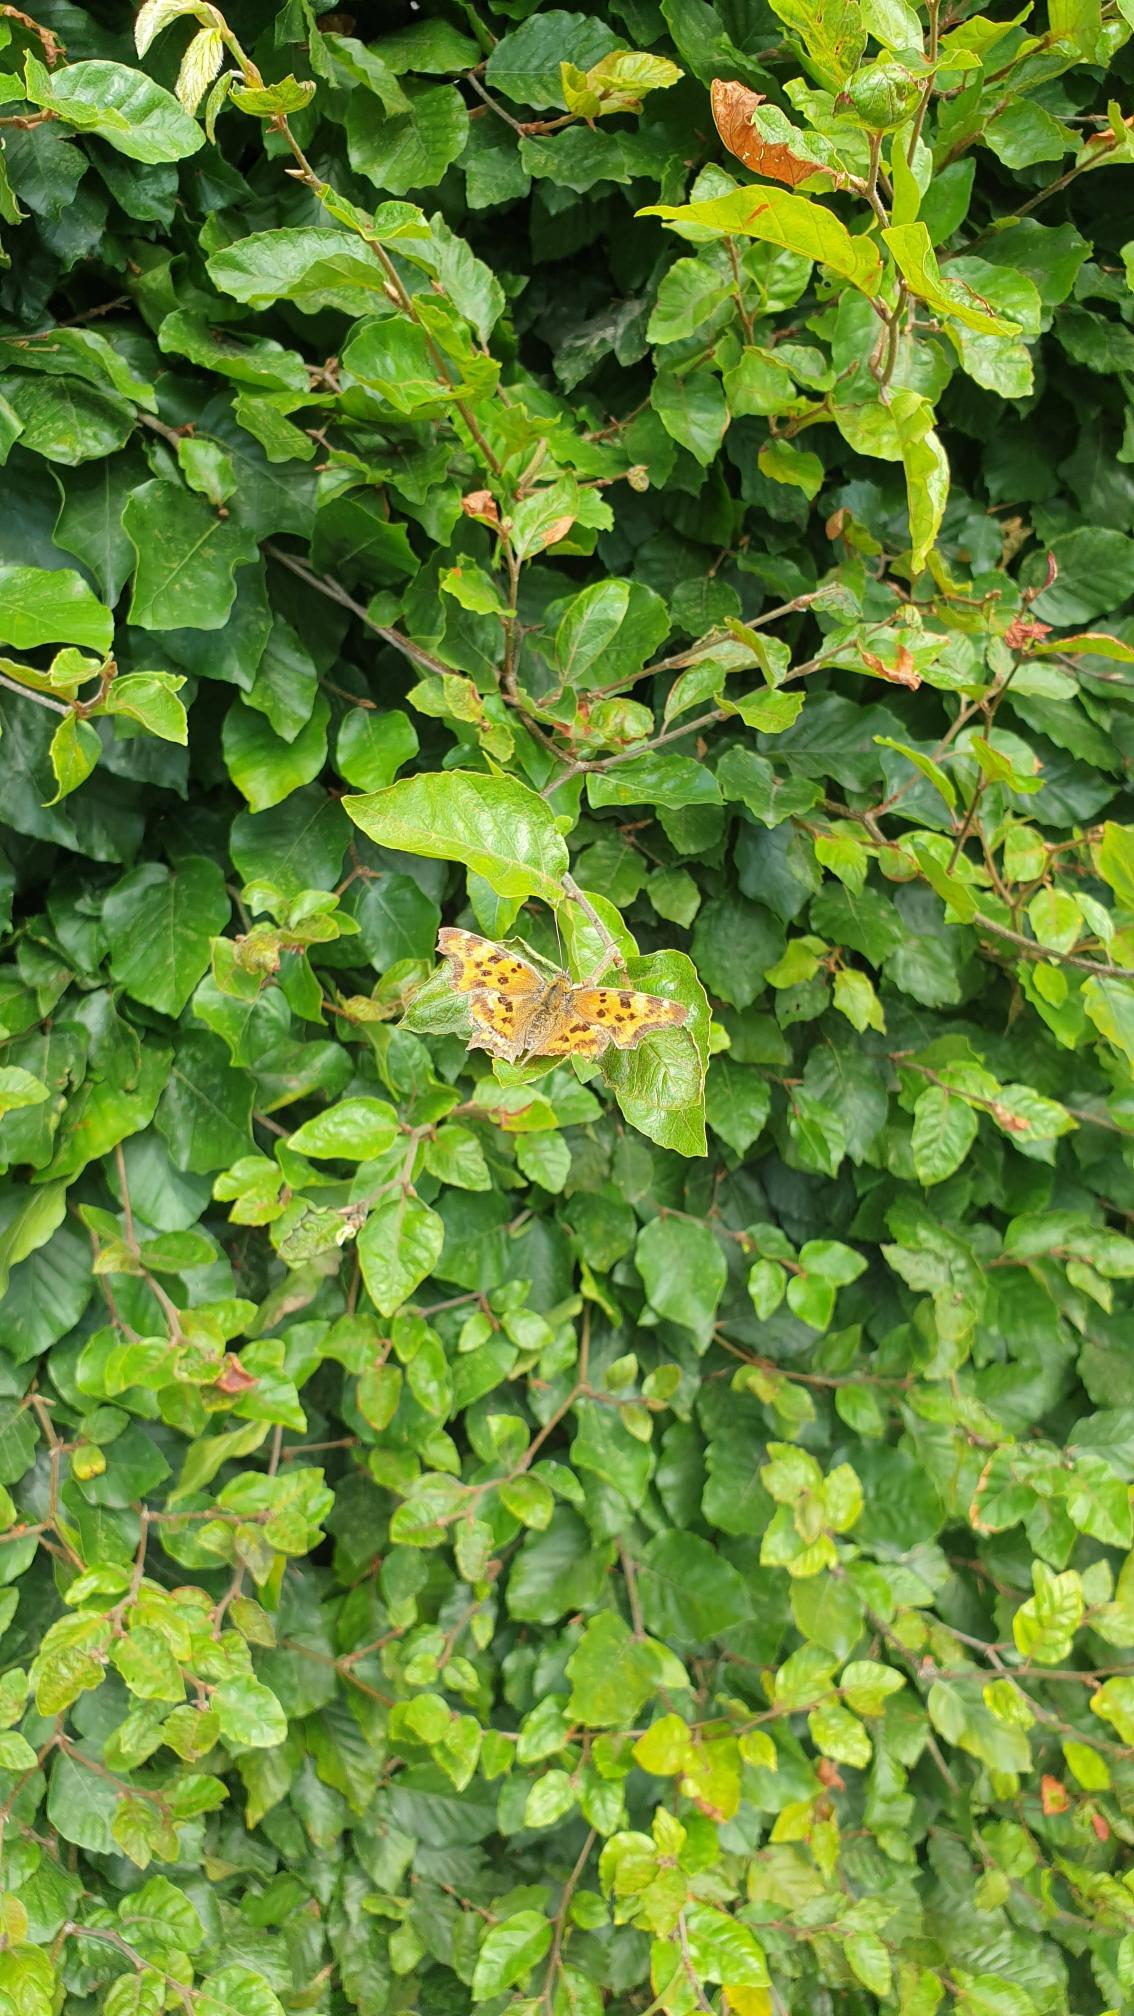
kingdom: Animalia
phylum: Arthropoda
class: Insecta
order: Lepidoptera
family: Nymphalidae
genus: Polygonia
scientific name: Polygonia c-album
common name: Det hvide C
